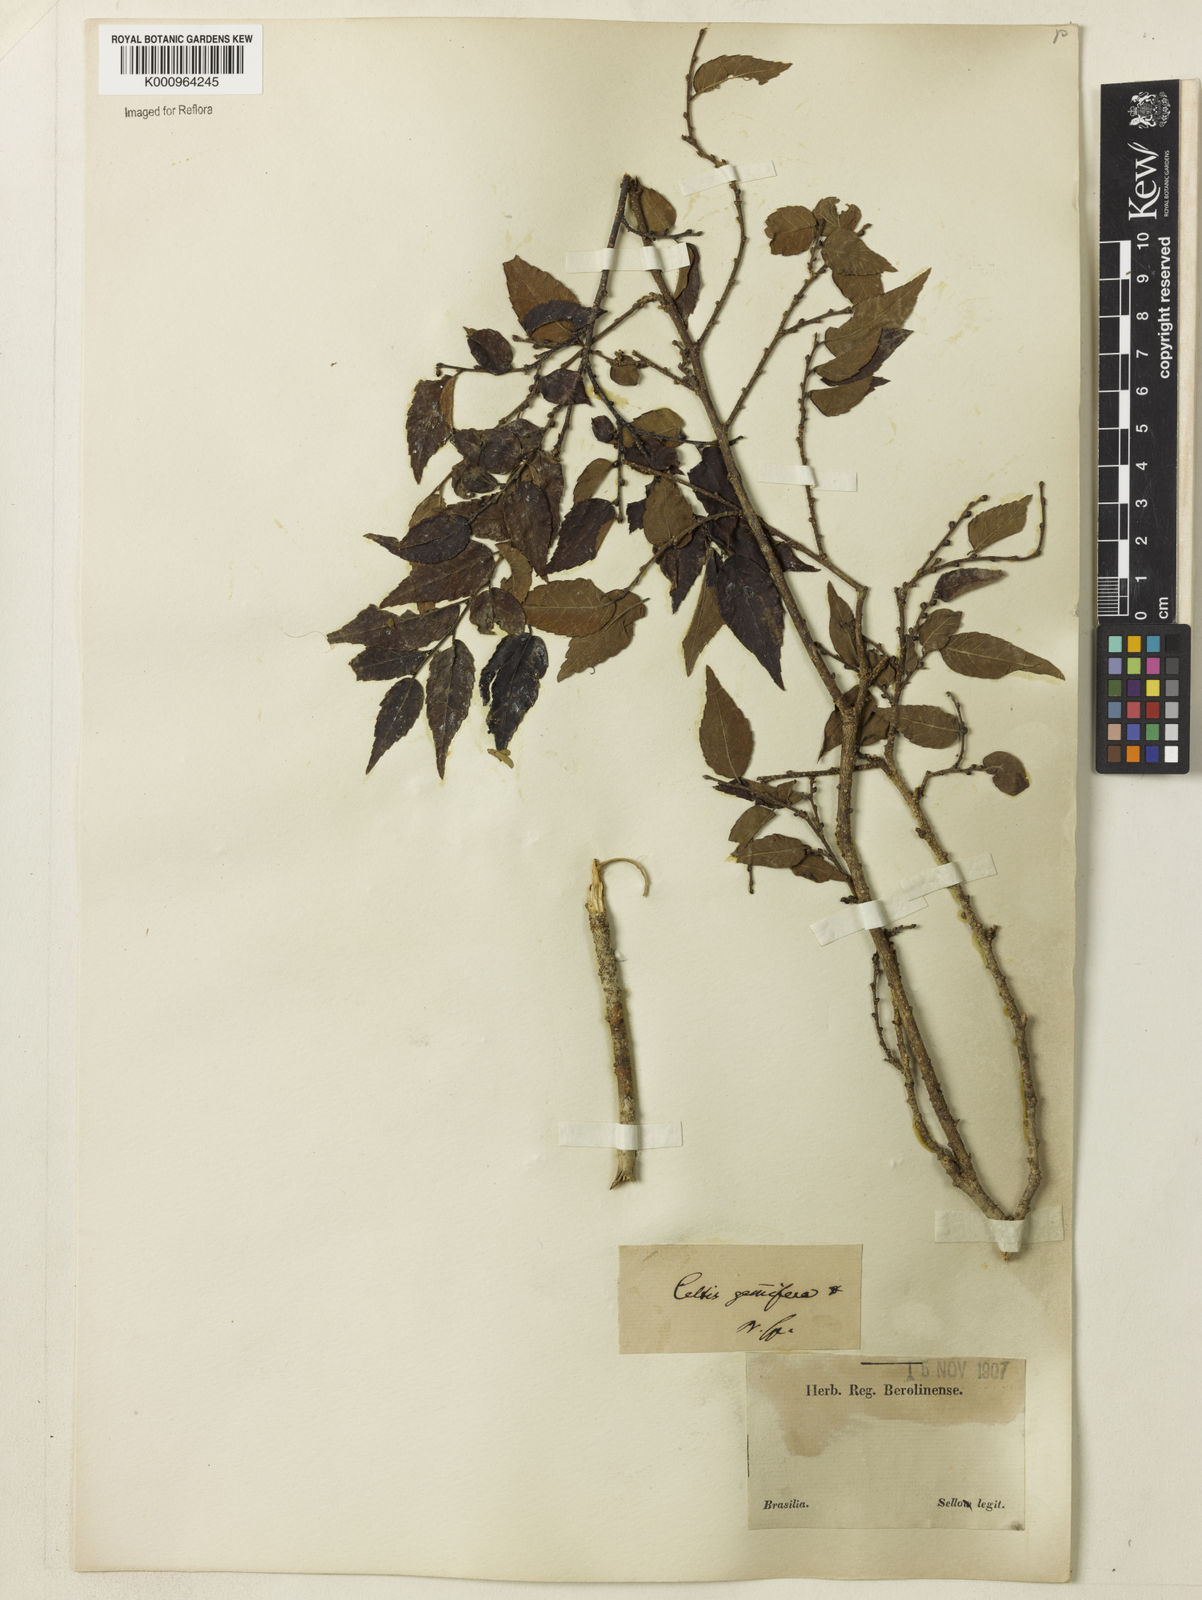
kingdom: Plantae
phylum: Tracheophyta
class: Magnoliopsida
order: Rosales
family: Cannabaceae
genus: Celtis
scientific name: Celtis tala
